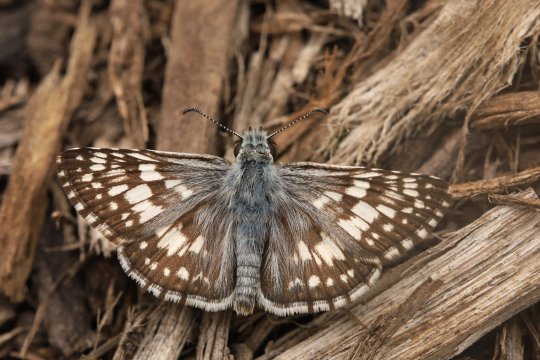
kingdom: Animalia
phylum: Arthropoda
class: Insecta
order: Lepidoptera
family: Hesperiidae
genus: Pyrgus
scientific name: Pyrgus communis
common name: Common Checkered-Skipper
